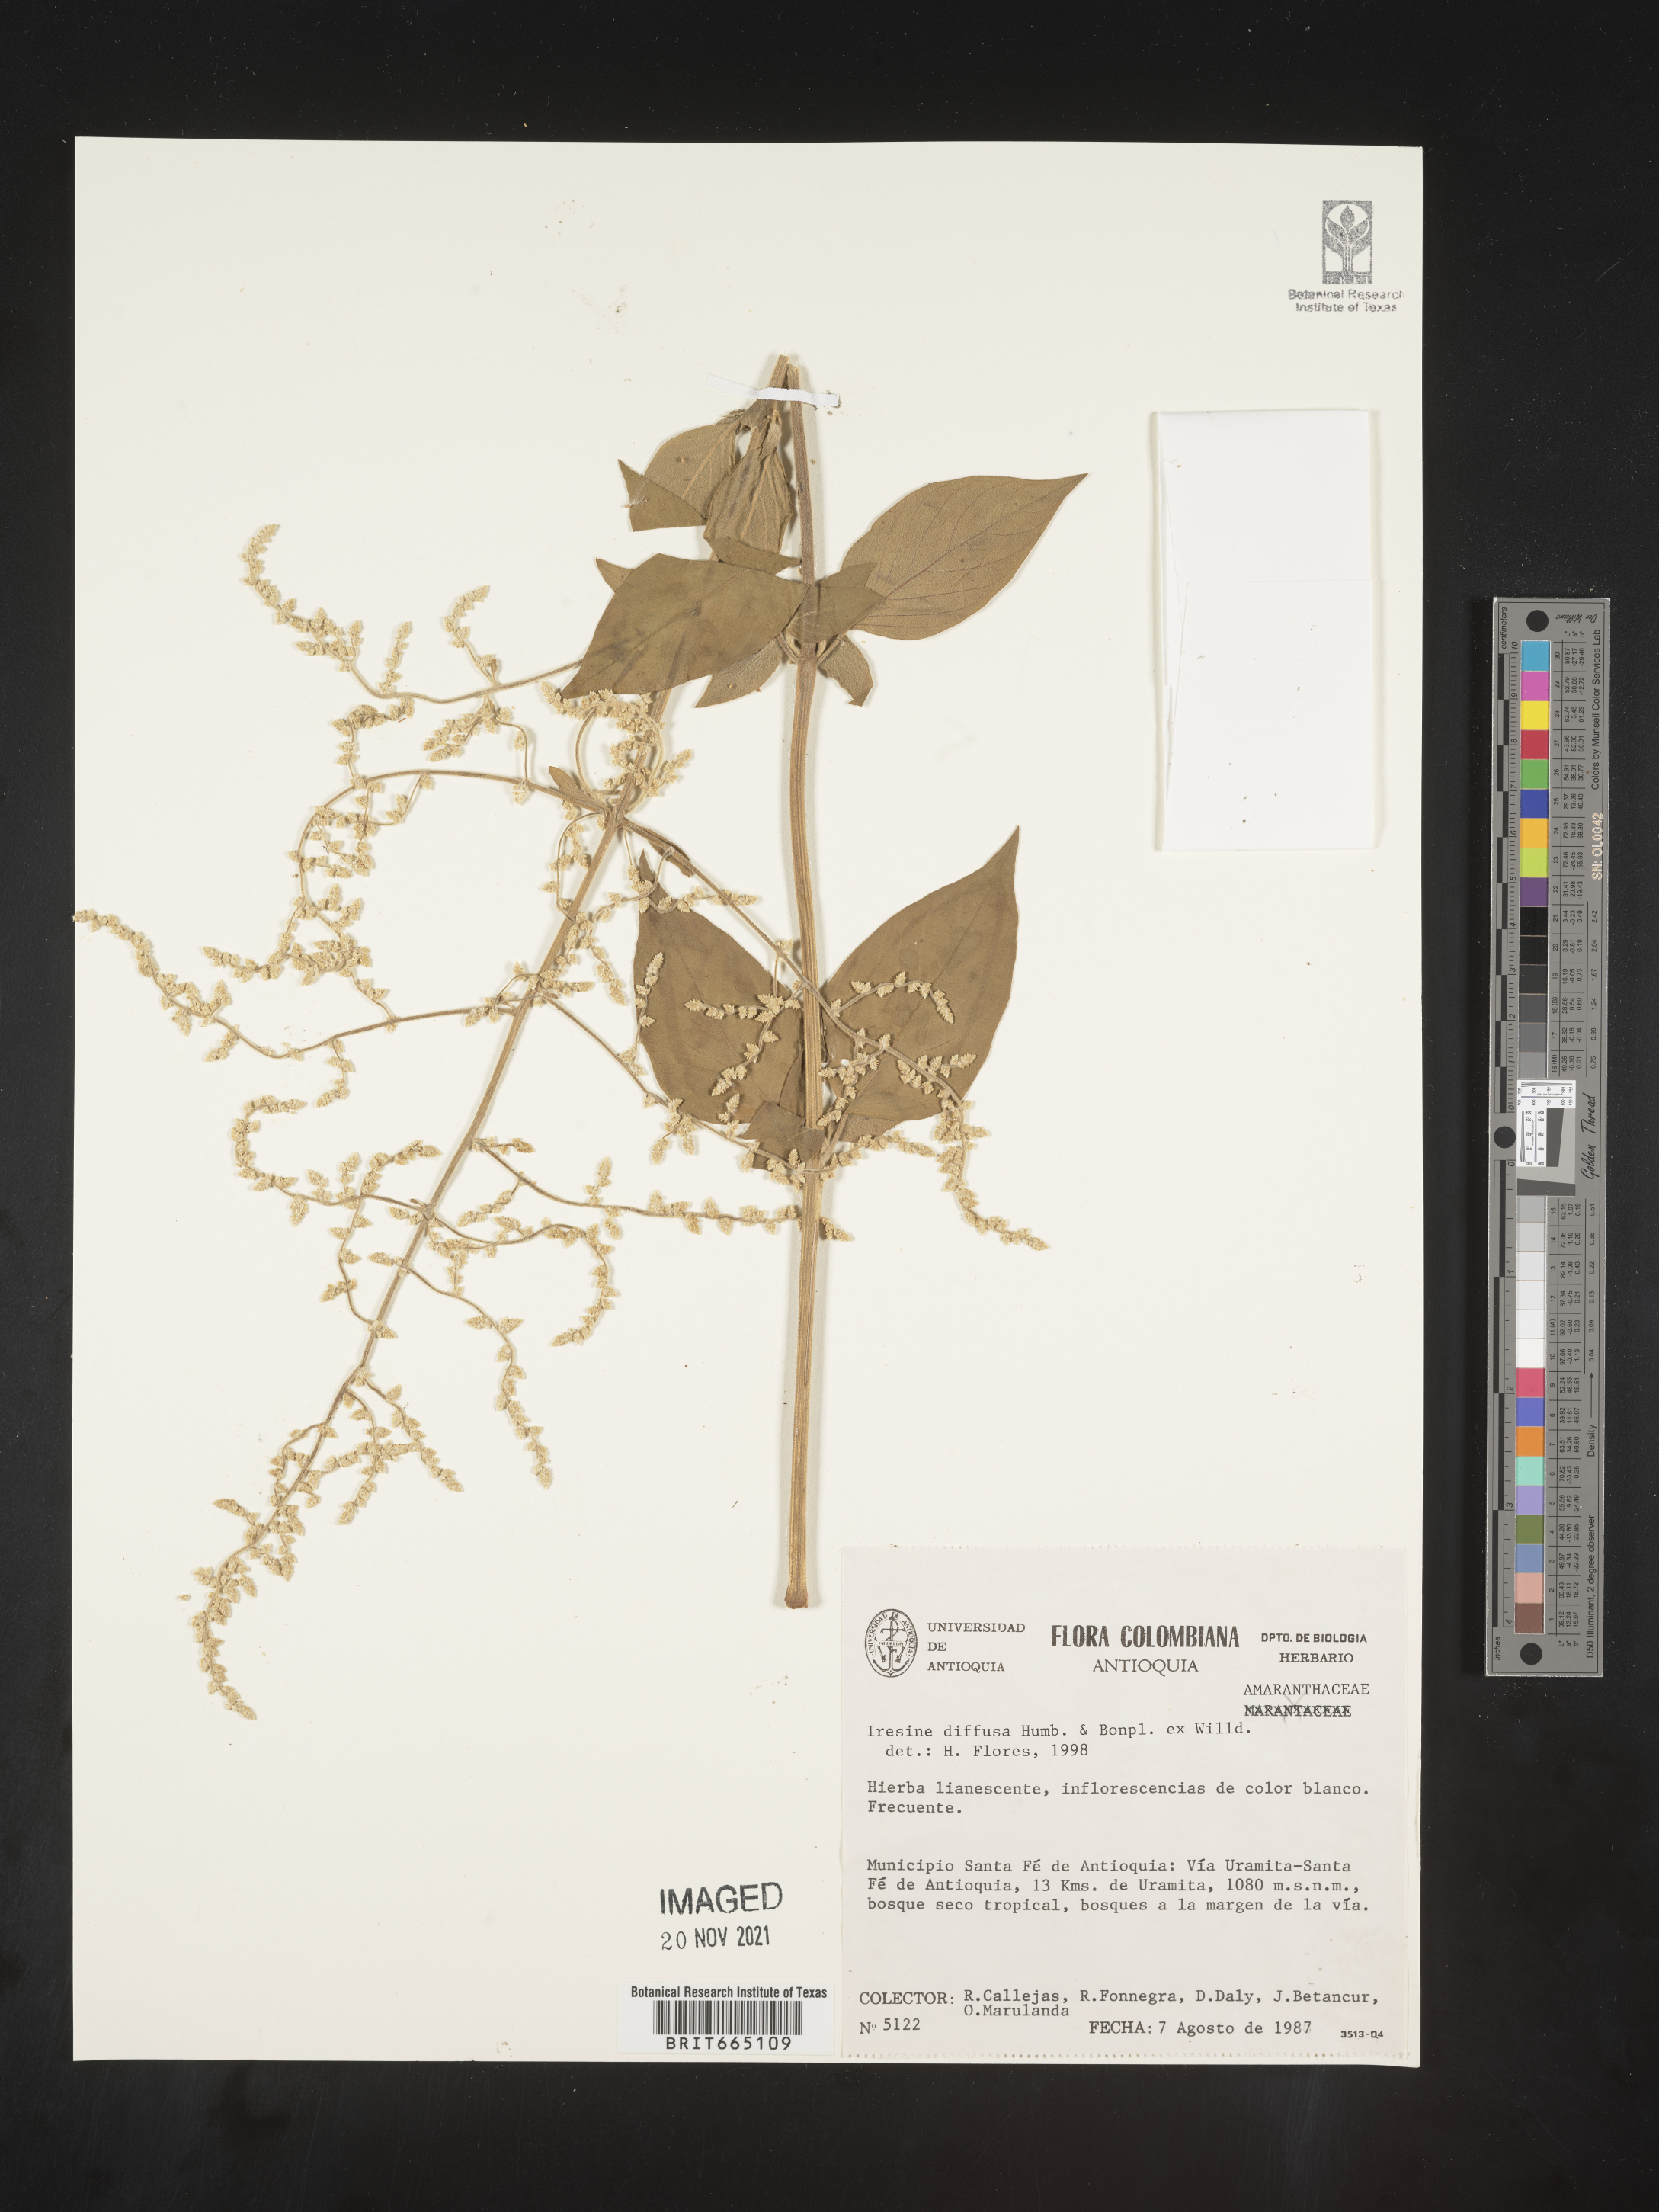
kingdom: Plantae
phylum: Tracheophyta
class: Magnoliopsida
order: Caryophyllales
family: Amaranthaceae
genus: Iresine
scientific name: Iresine
